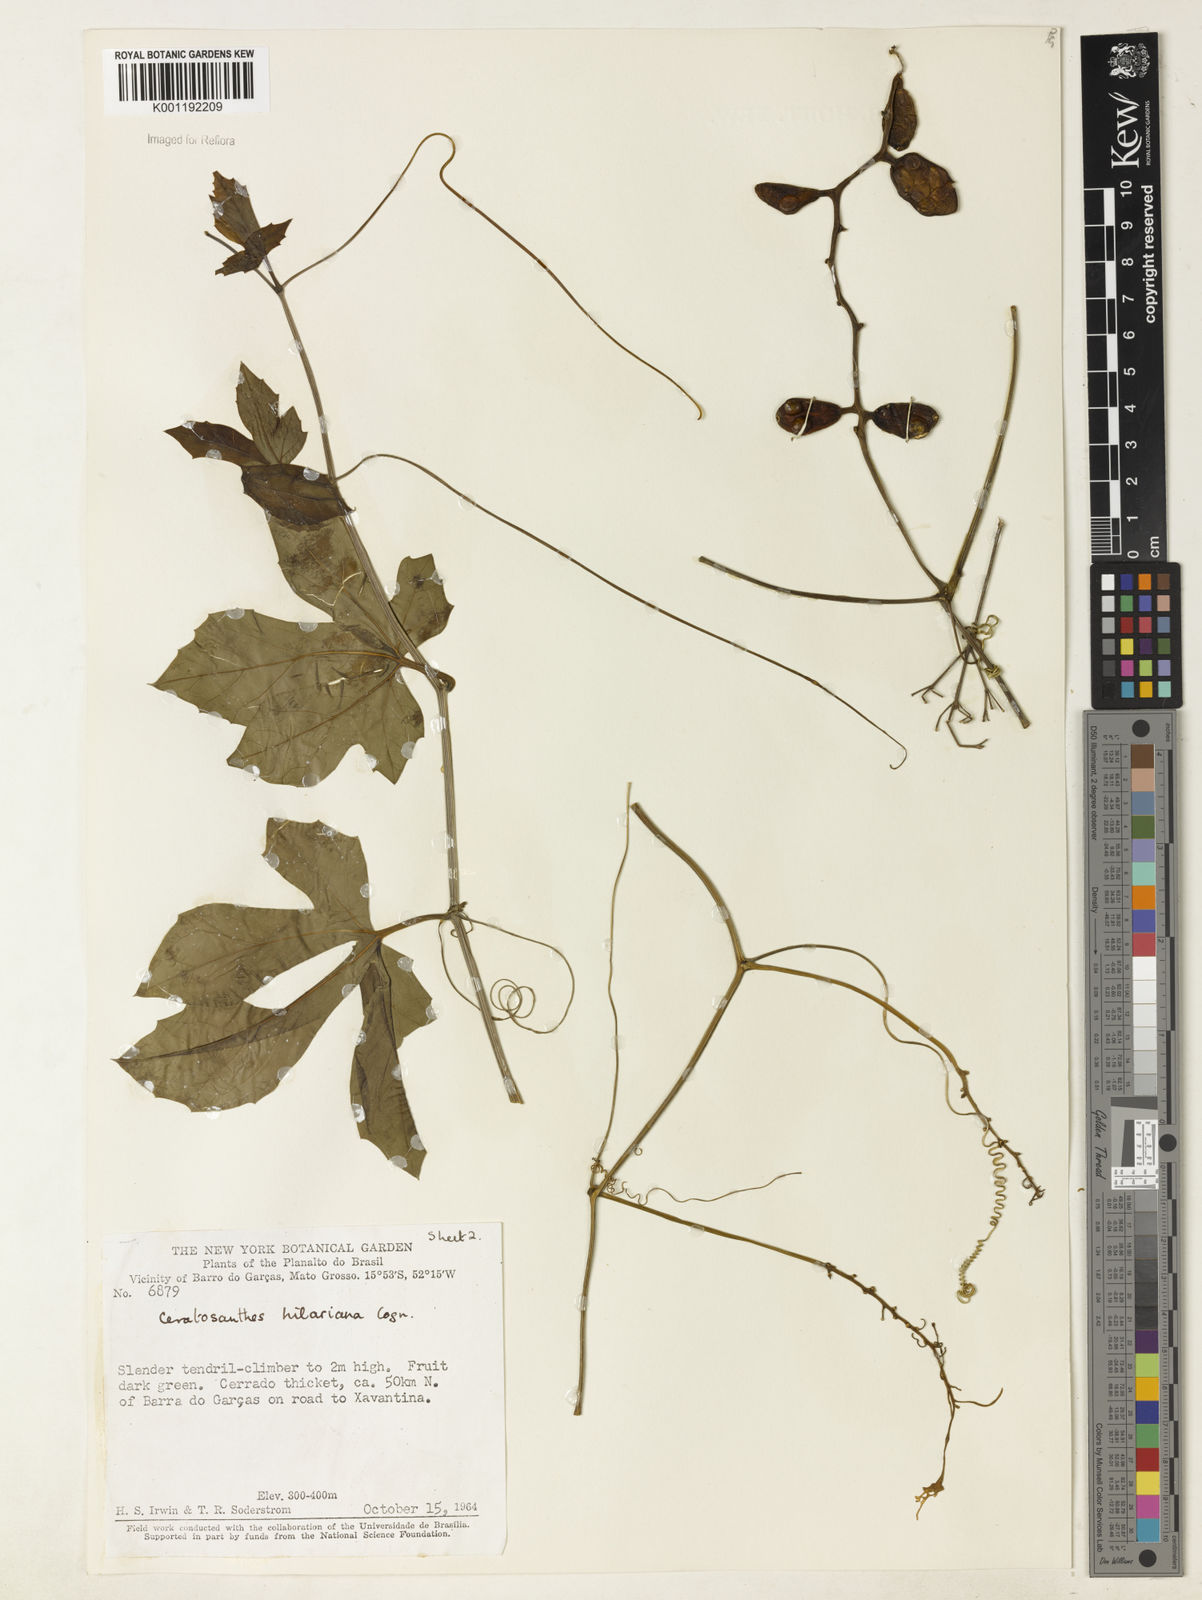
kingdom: Plantae
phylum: Tracheophyta
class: Magnoliopsida
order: Cucurbitales
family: Cucurbitaceae
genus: Ceratosanthes
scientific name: Ceratosanthes hilariana
